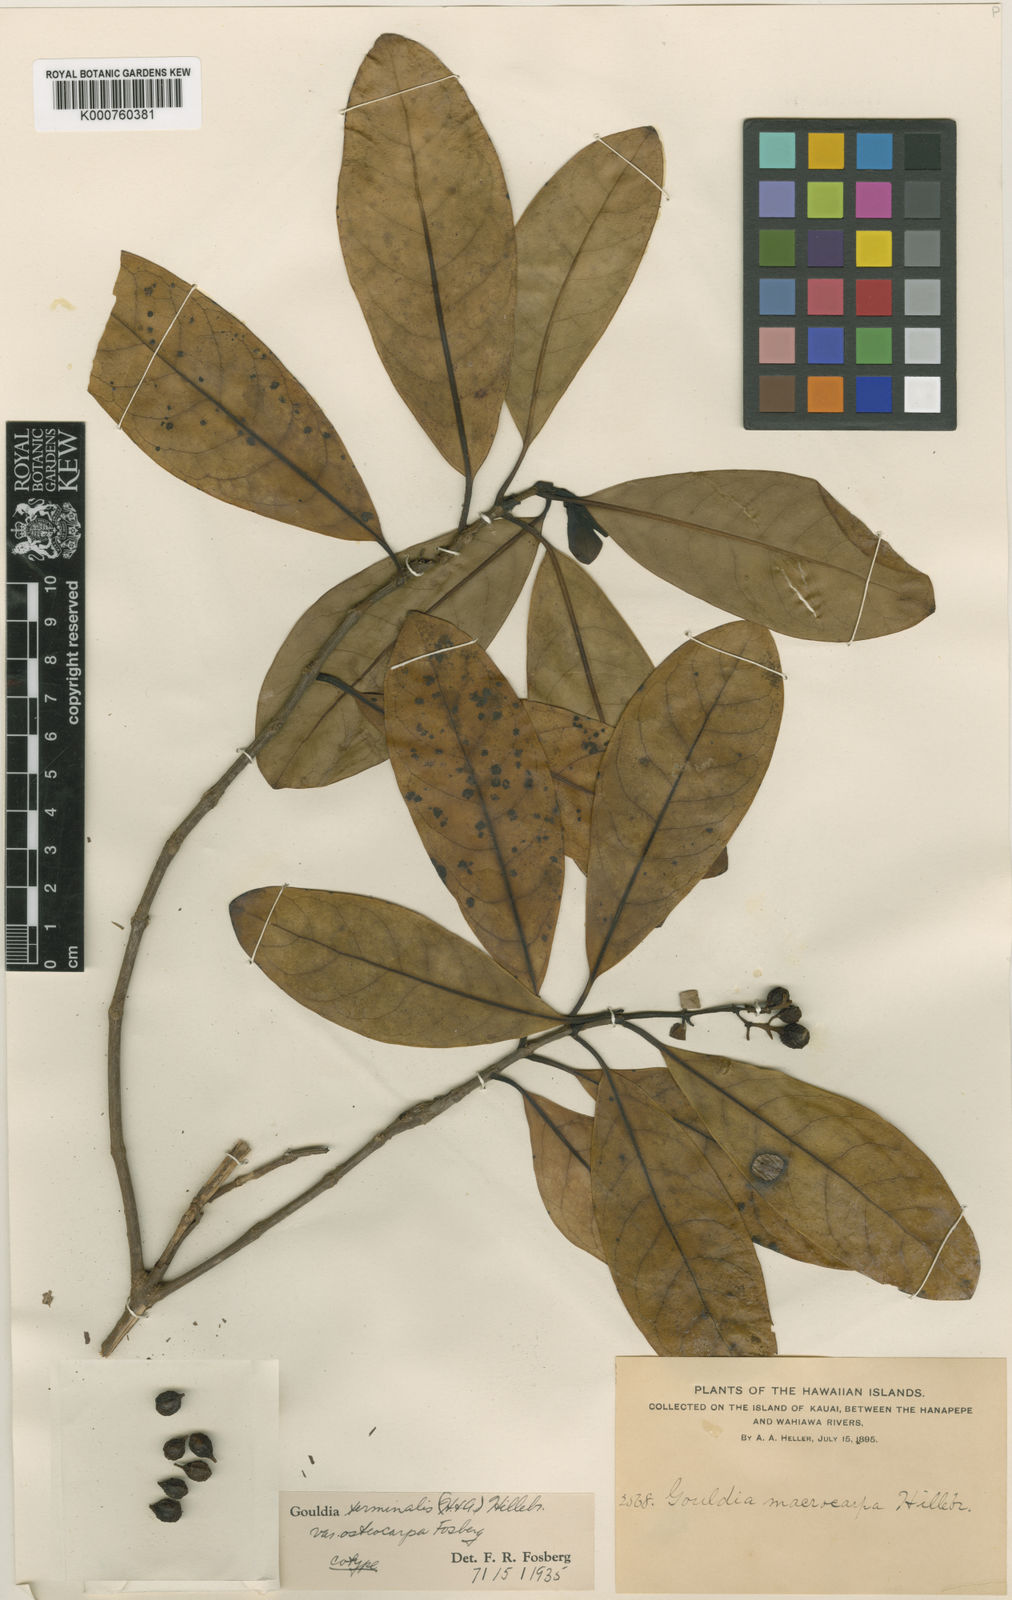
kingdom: Plantae
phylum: Tracheophyta
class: Magnoliopsida
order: Gentianales
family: Rubiaceae
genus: Kadua
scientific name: Kadua affinis
